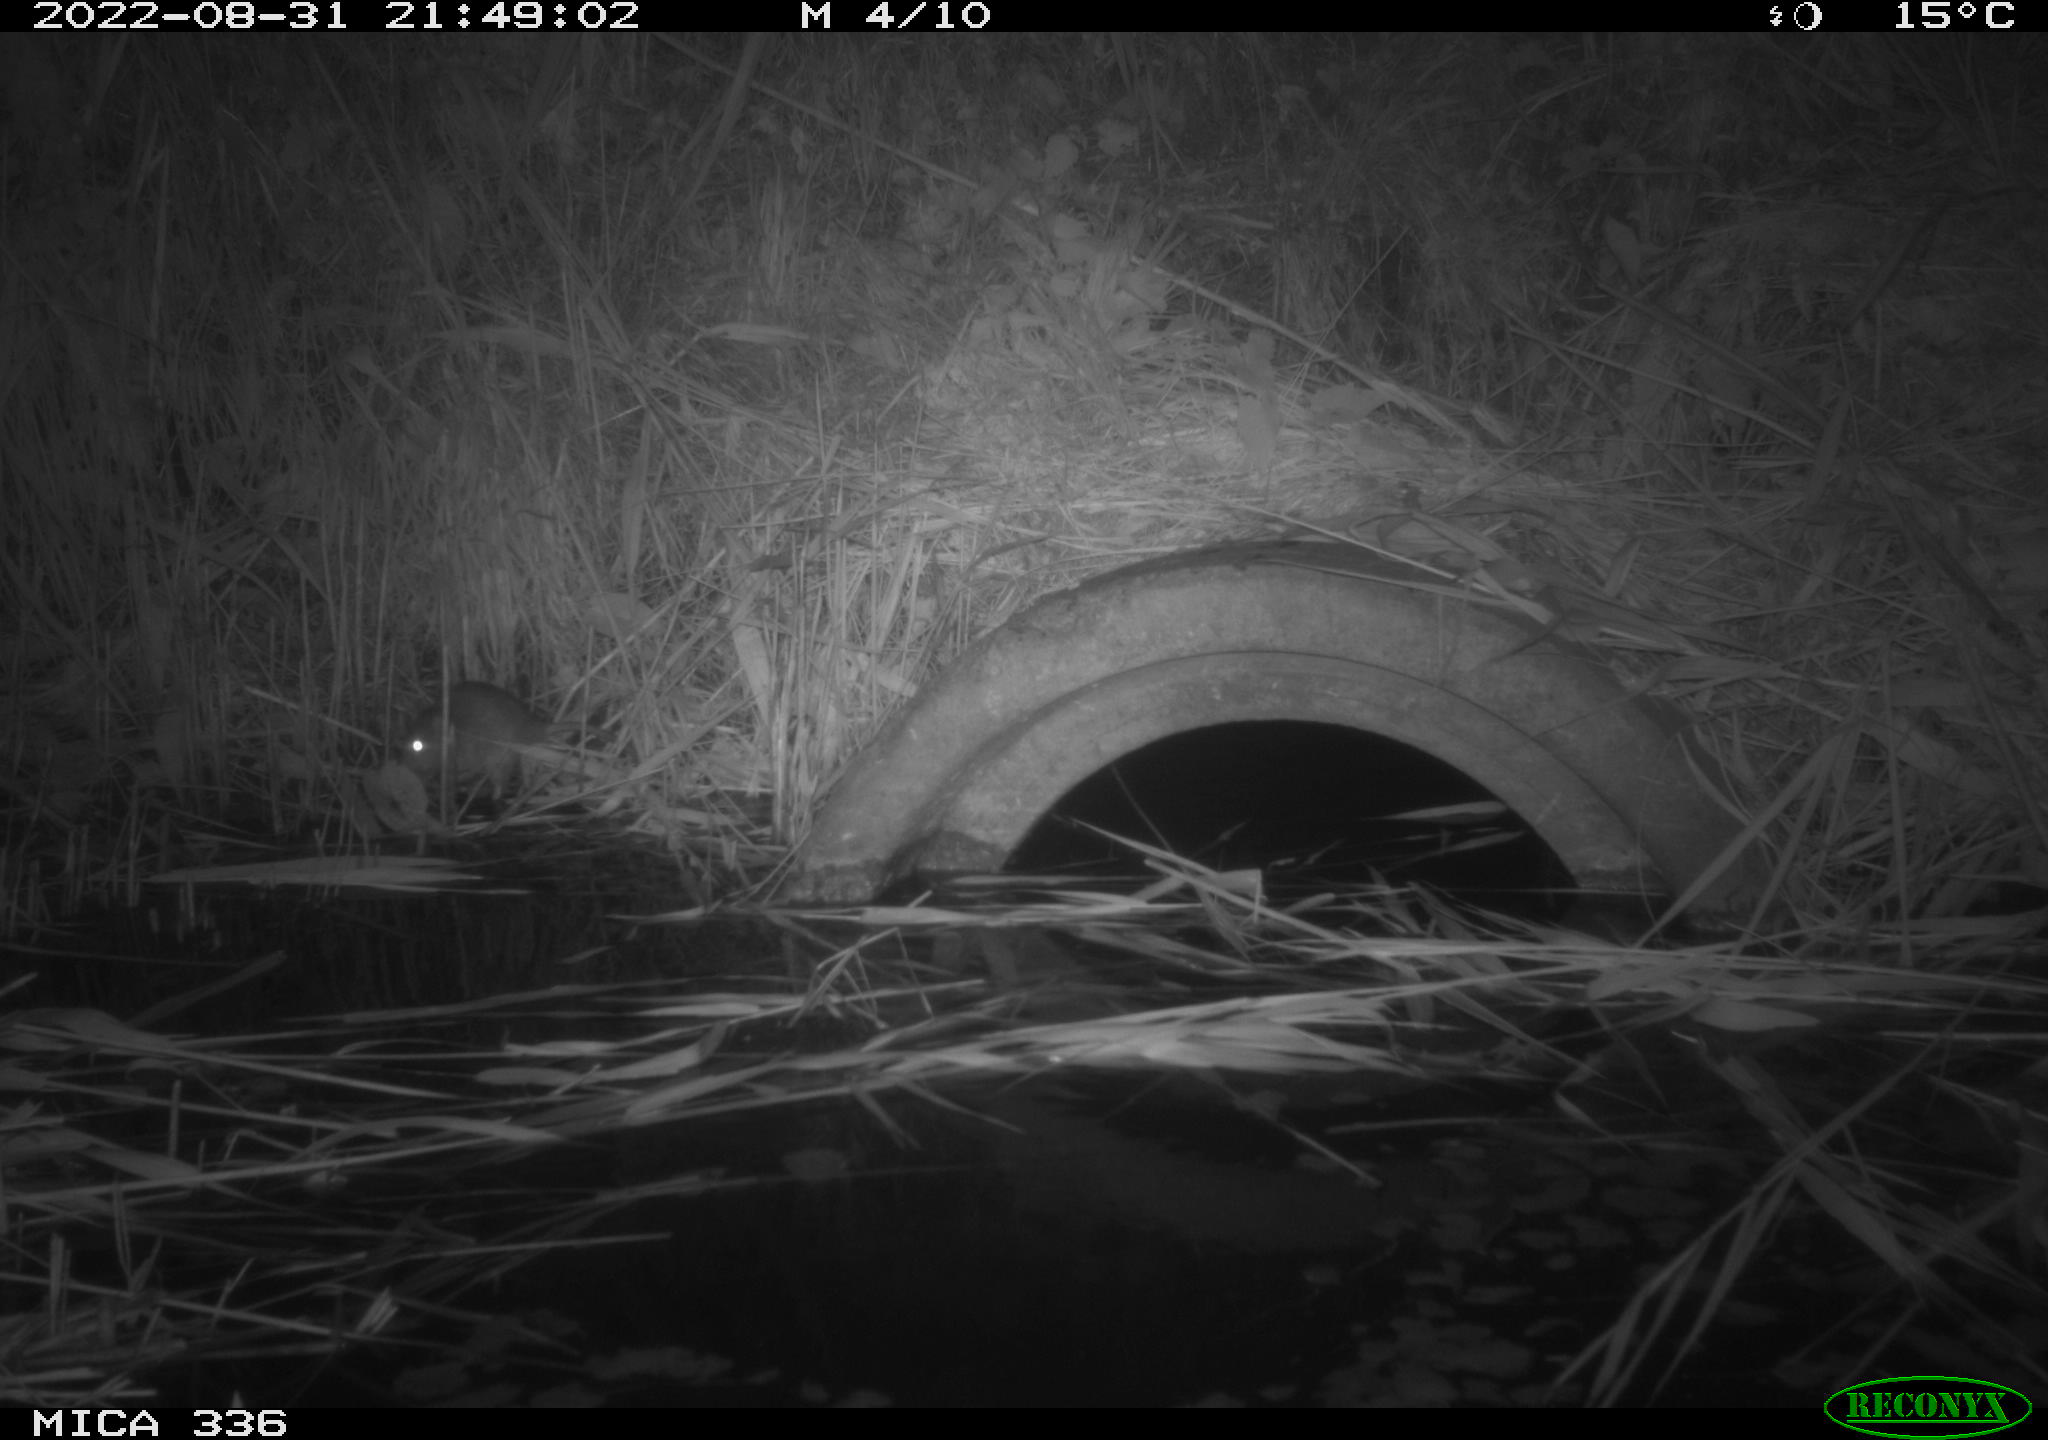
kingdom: Animalia
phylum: Chordata
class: Mammalia
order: Rodentia
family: Muridae
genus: Rattus
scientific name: Rattus norvegicus
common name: Brown rat
